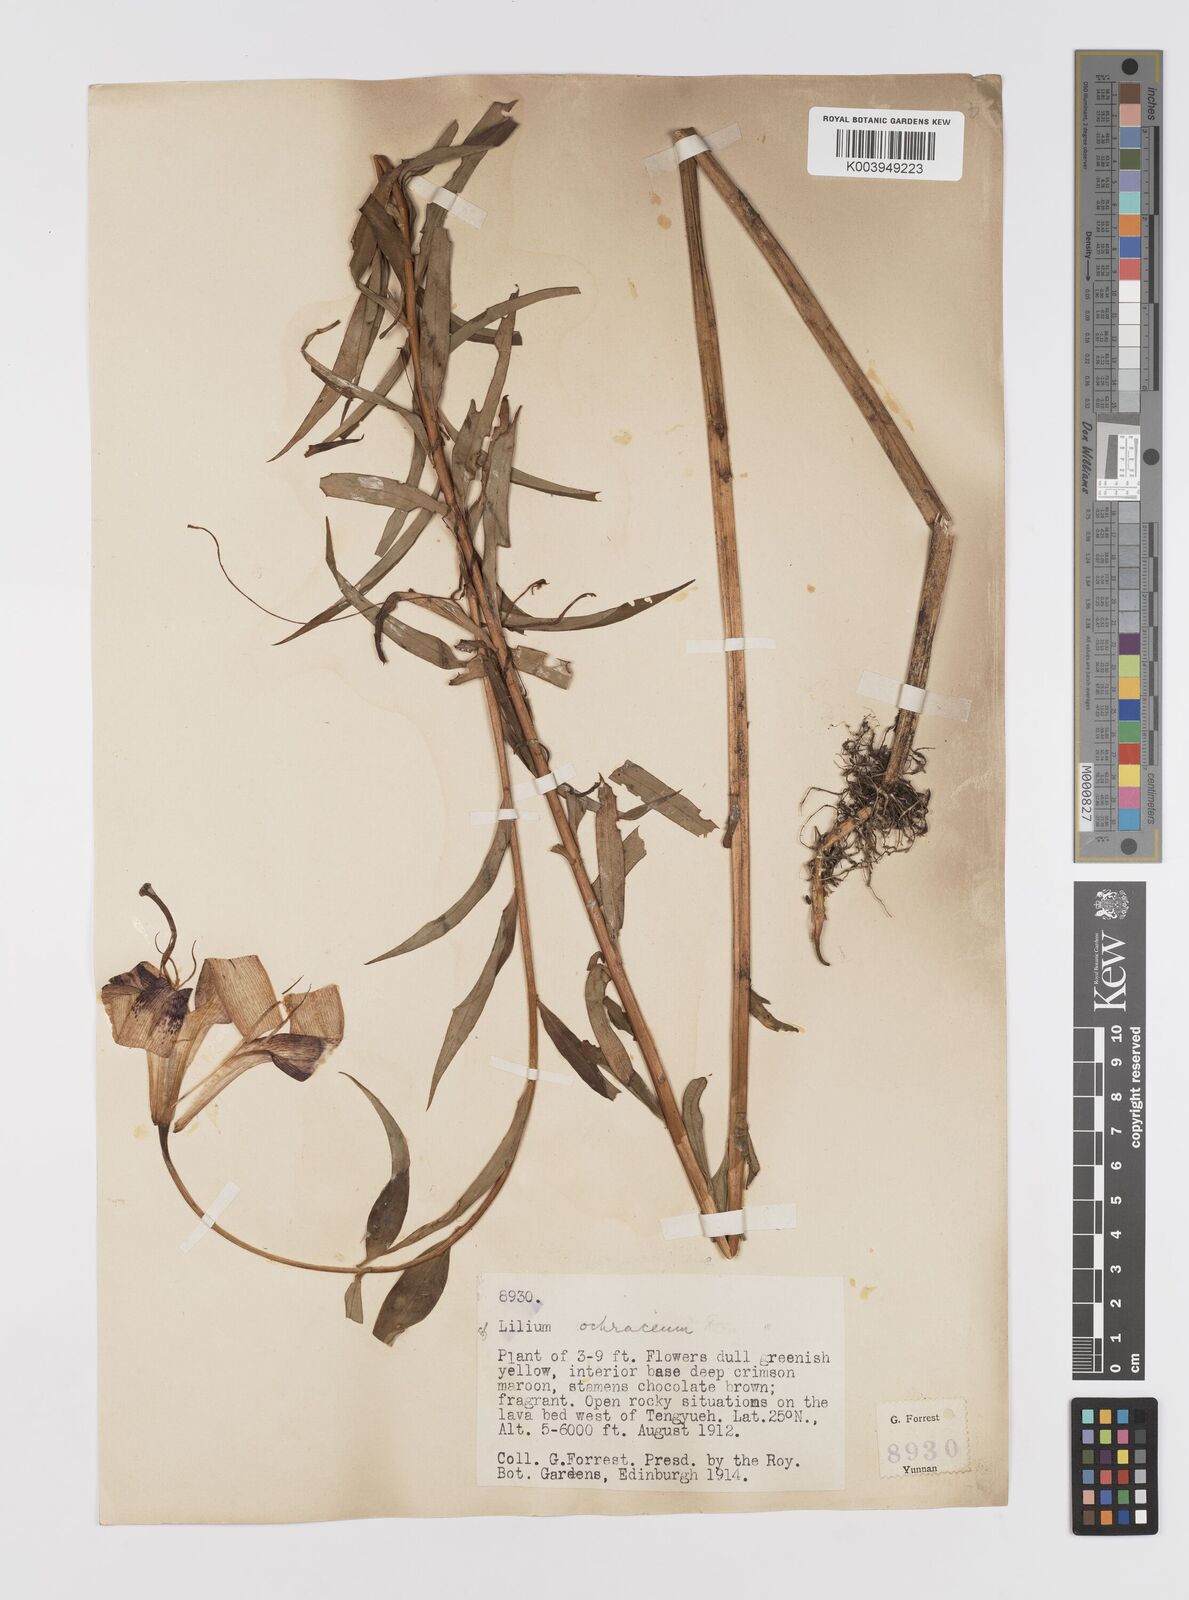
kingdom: Plantae
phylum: Tracheophyta
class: Liliopsida
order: Liliales
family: Liliaceae
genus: Lilium
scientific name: Lilium primulinum
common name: Ochre lily
